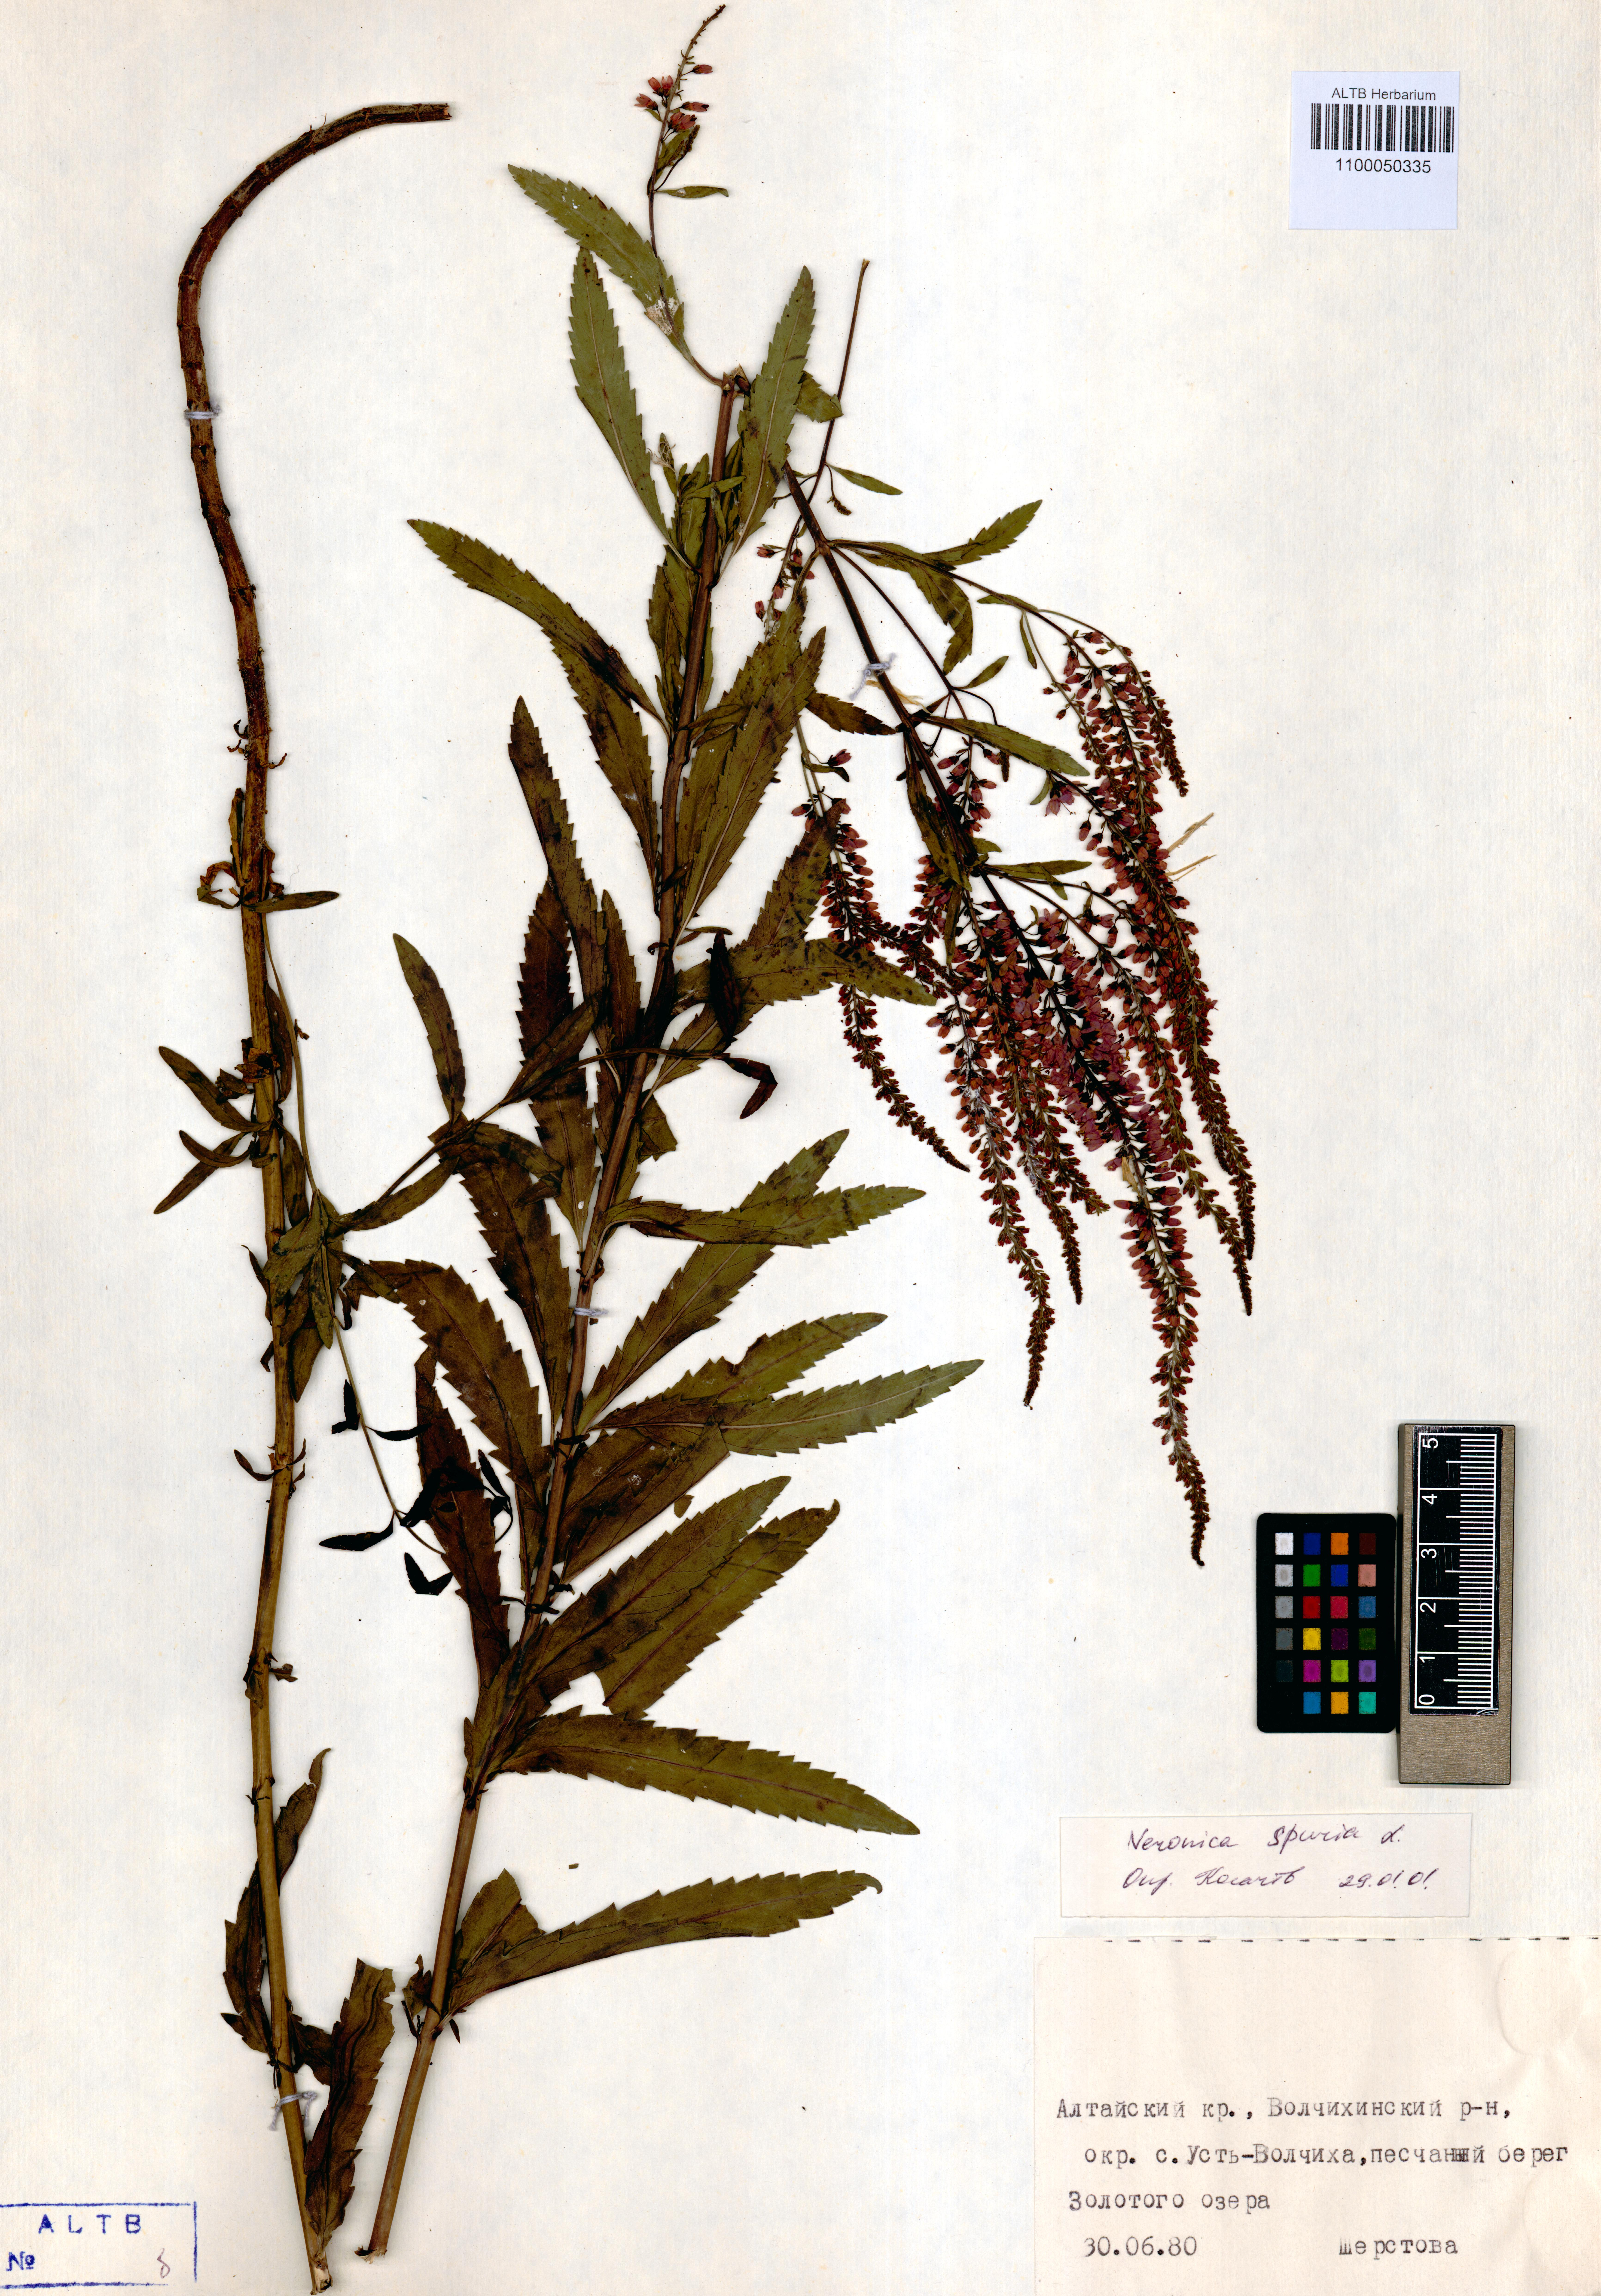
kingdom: Plantae
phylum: Tracheophyta
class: Magnoliopsida
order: Lamiales
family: Plantaginaceae
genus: Veronica
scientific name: Veronica spuria
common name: Bastard speedwell
